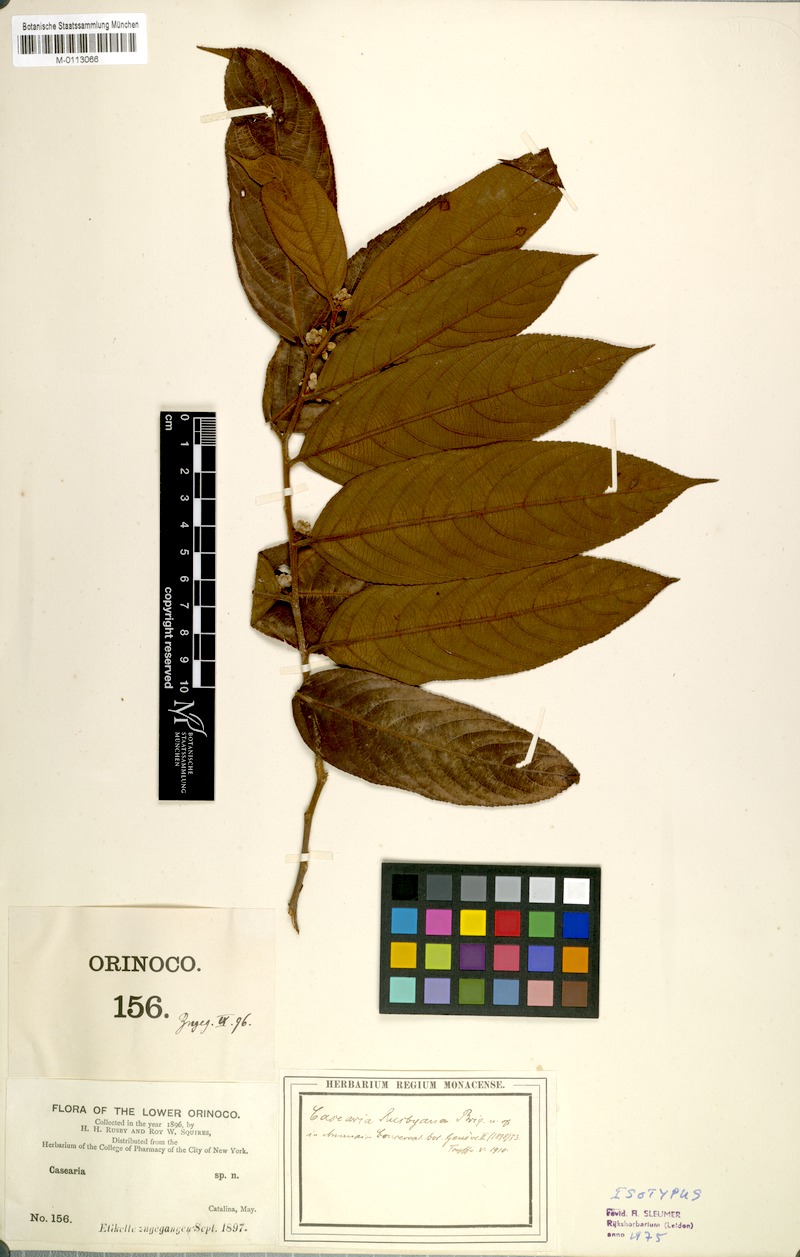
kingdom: Plantae
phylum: Tracheophyta
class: Magnoliopsida
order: Malpighiales
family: Salicaceae
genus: Casearia
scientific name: Casearia rusbyana
